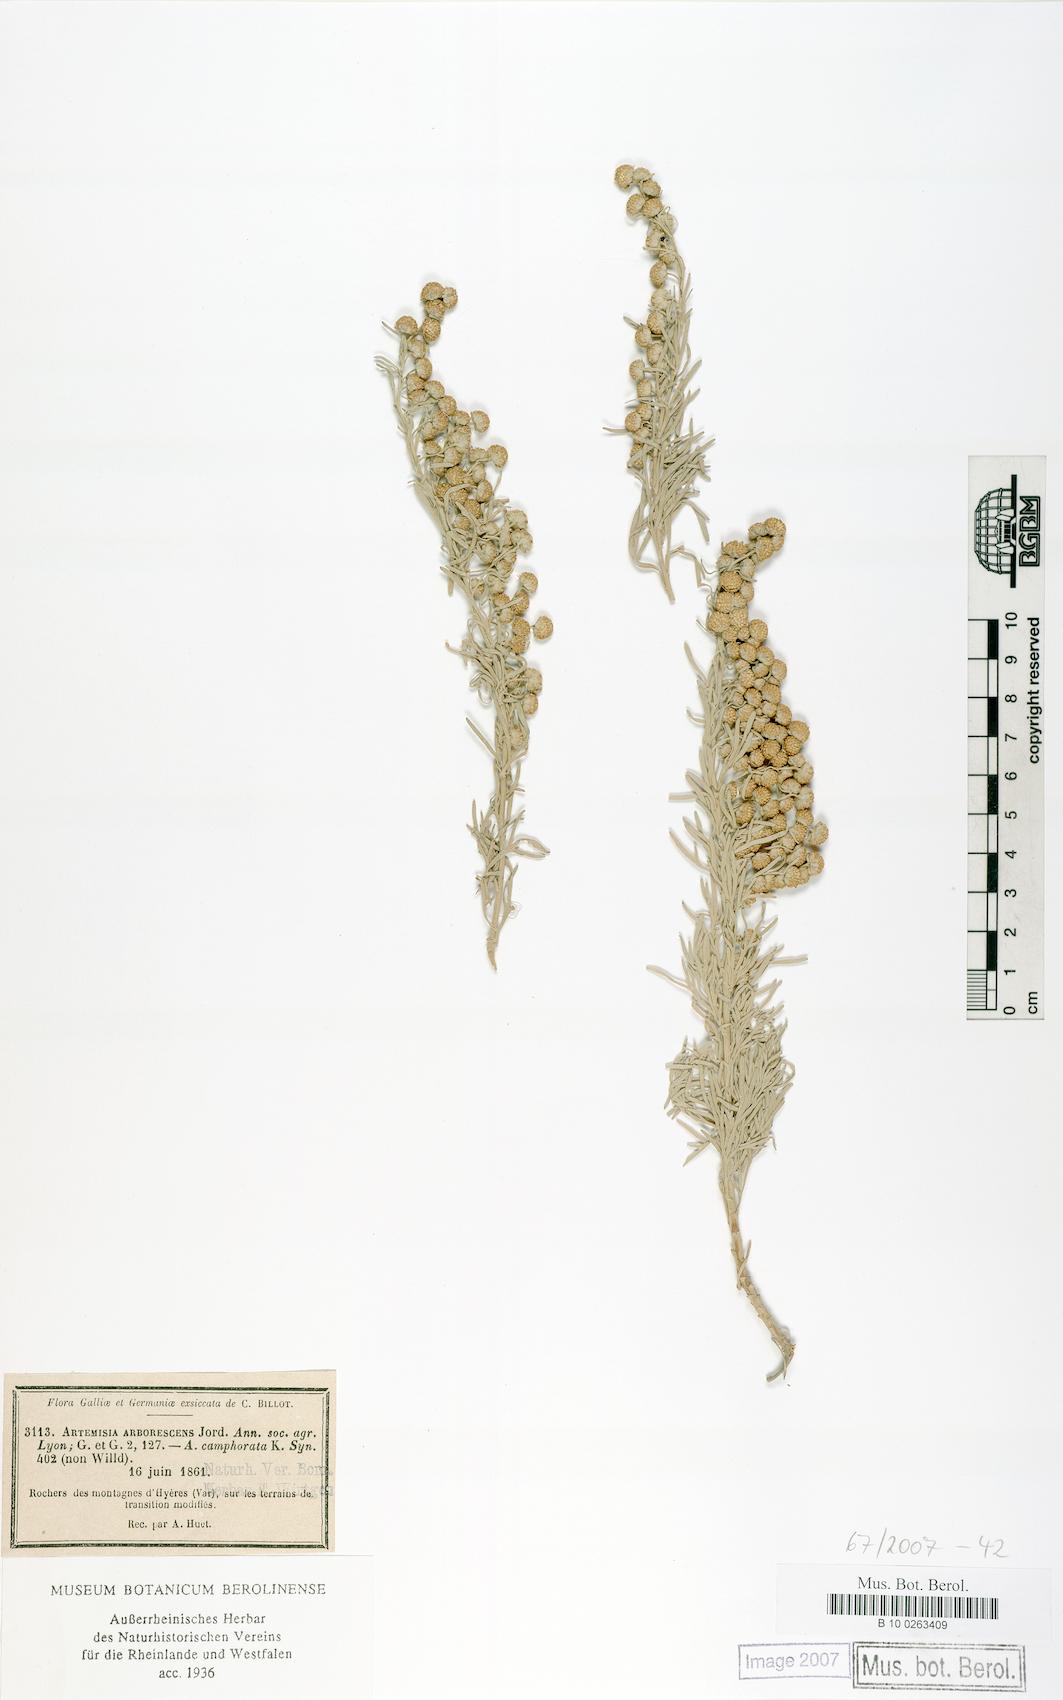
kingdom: Plantae
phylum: Tracheophyta
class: Magnoliopsida
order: Asterales
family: Asteraceae
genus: Artemisia
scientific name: Artemisia arborescens
